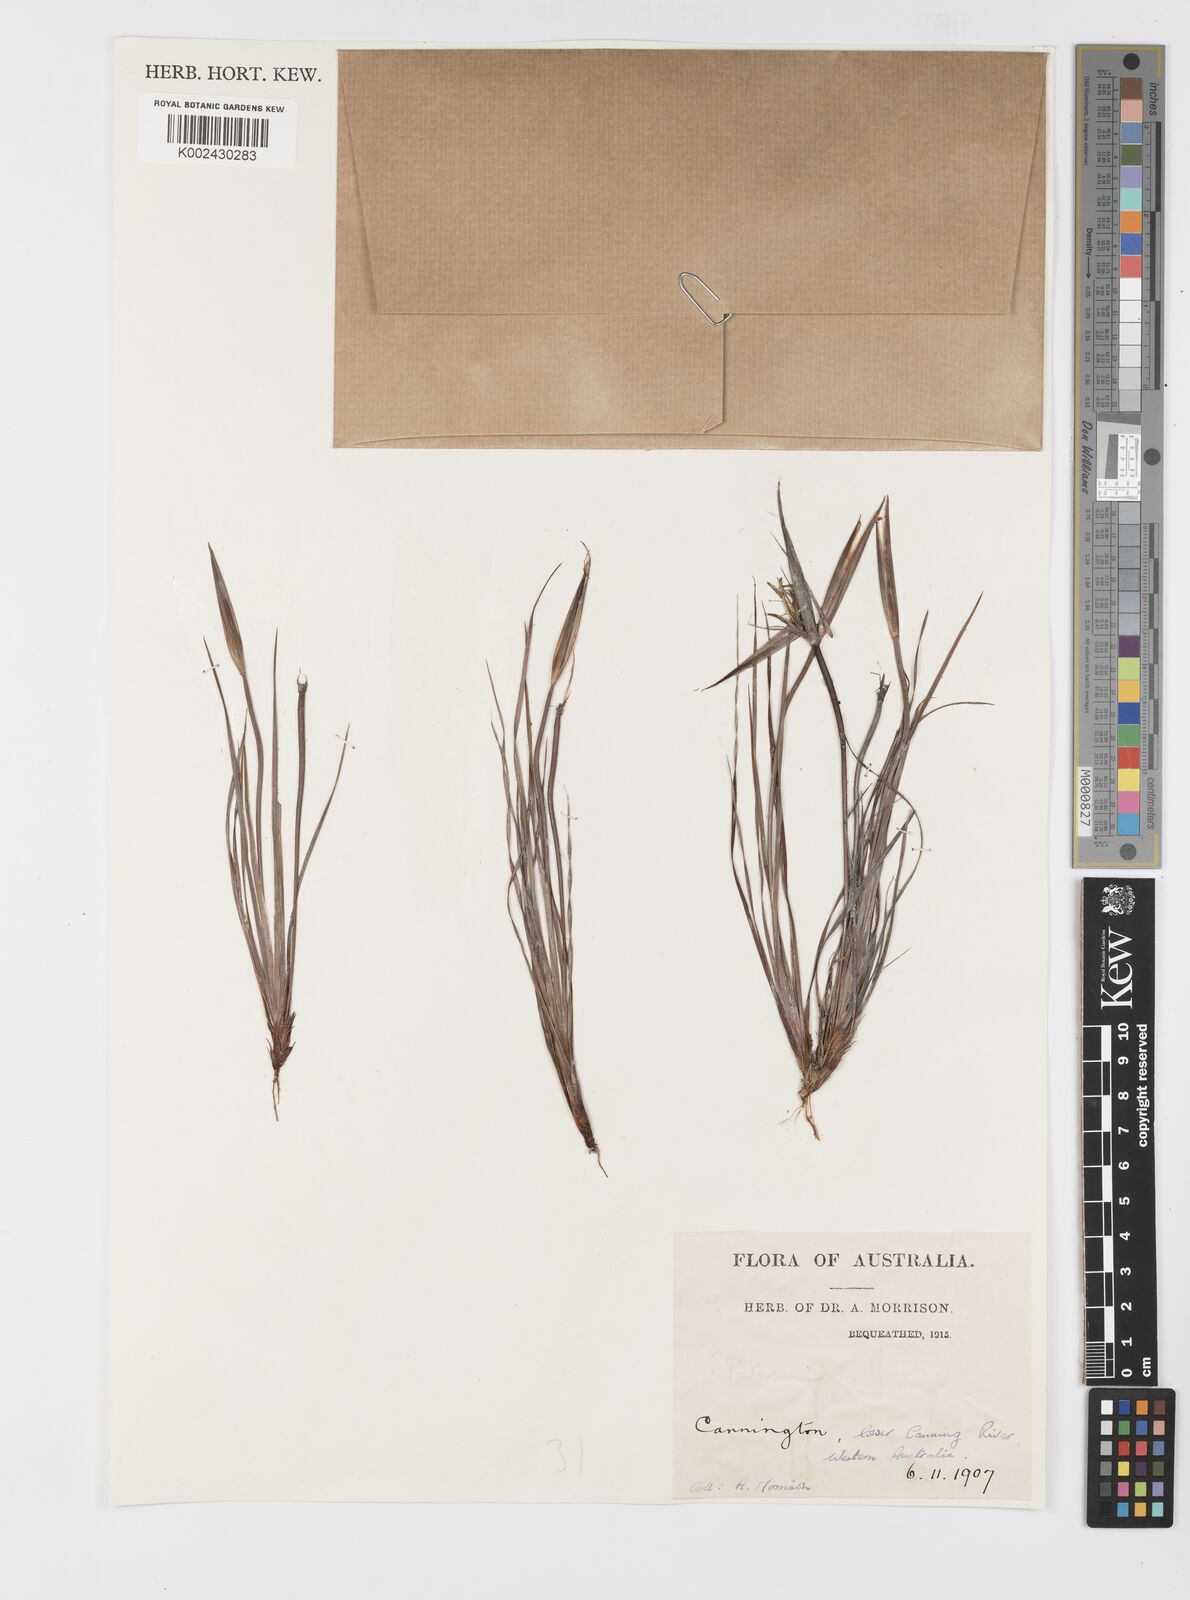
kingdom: Plantae
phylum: Tracheophyta
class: Liliopsida
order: Asparagales
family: Iridaceae
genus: Patersonia
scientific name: Patersonia
